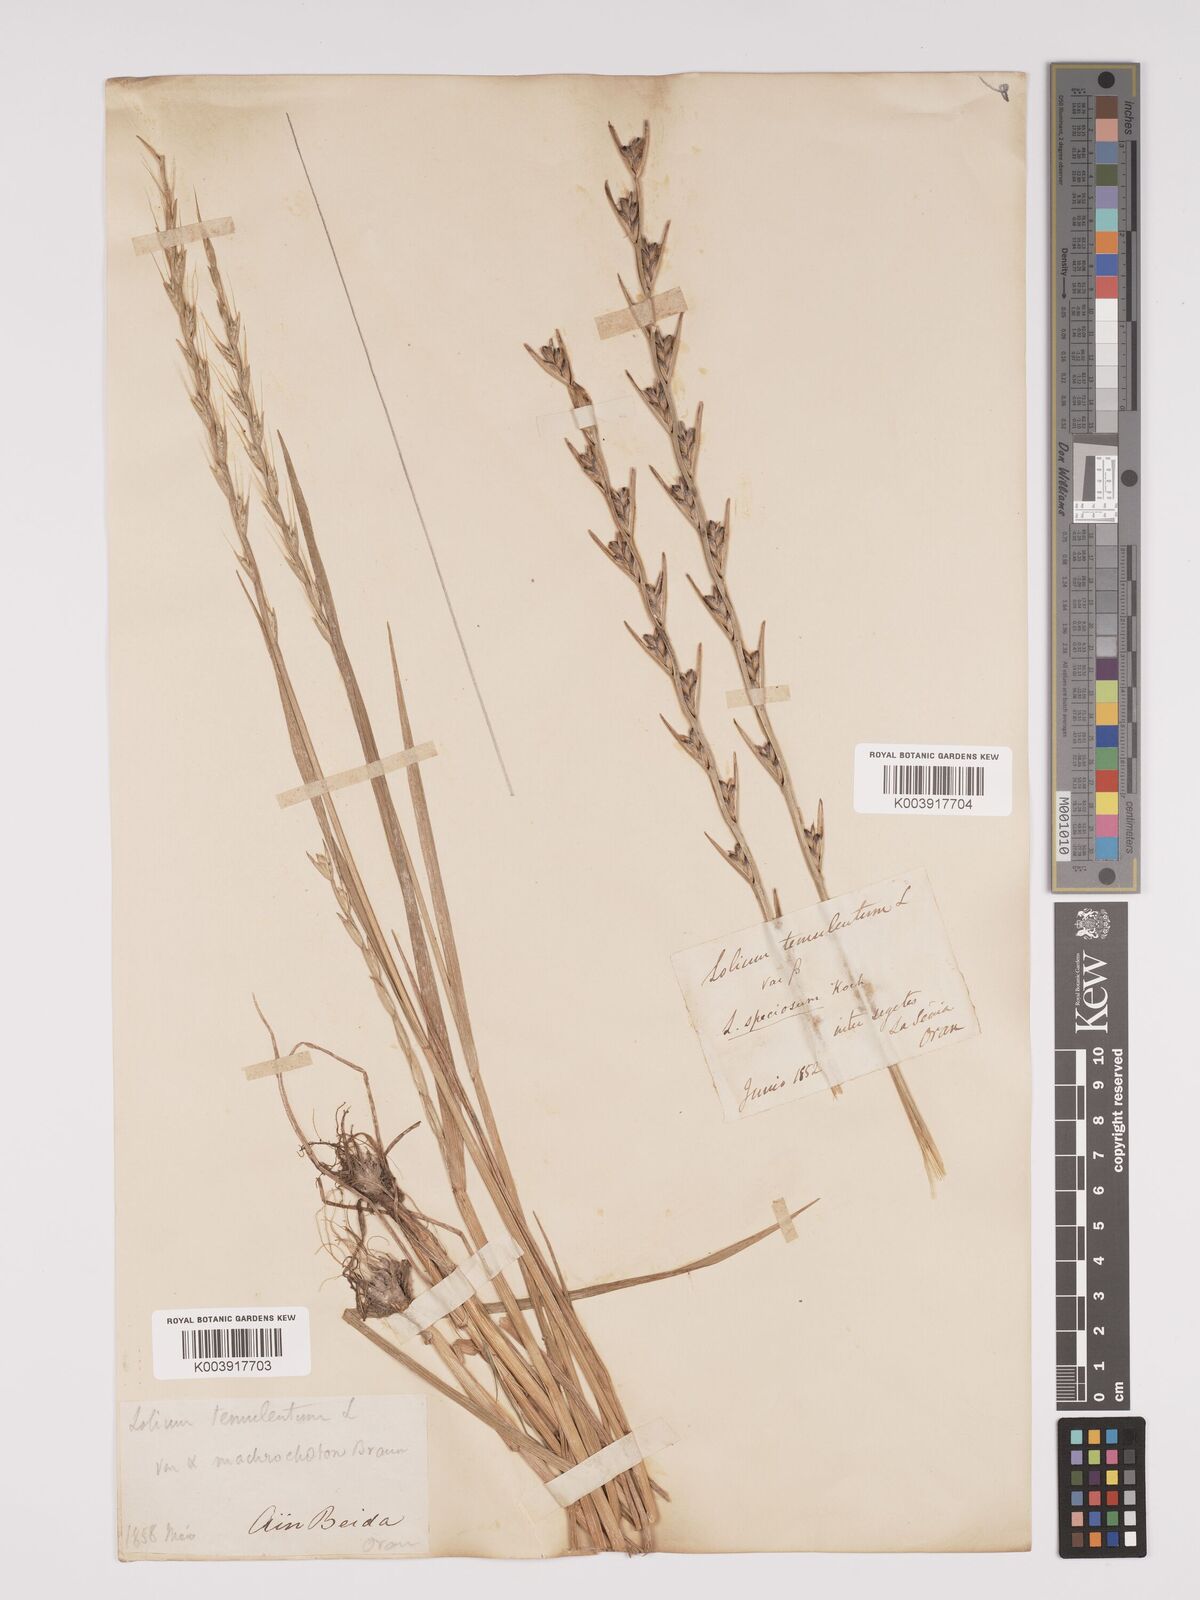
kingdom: Plantae
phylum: Tracheophyta
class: Liliopsida
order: Poales
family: Poaceae
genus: Lolium
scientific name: Lolium temulentum
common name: Darnel
